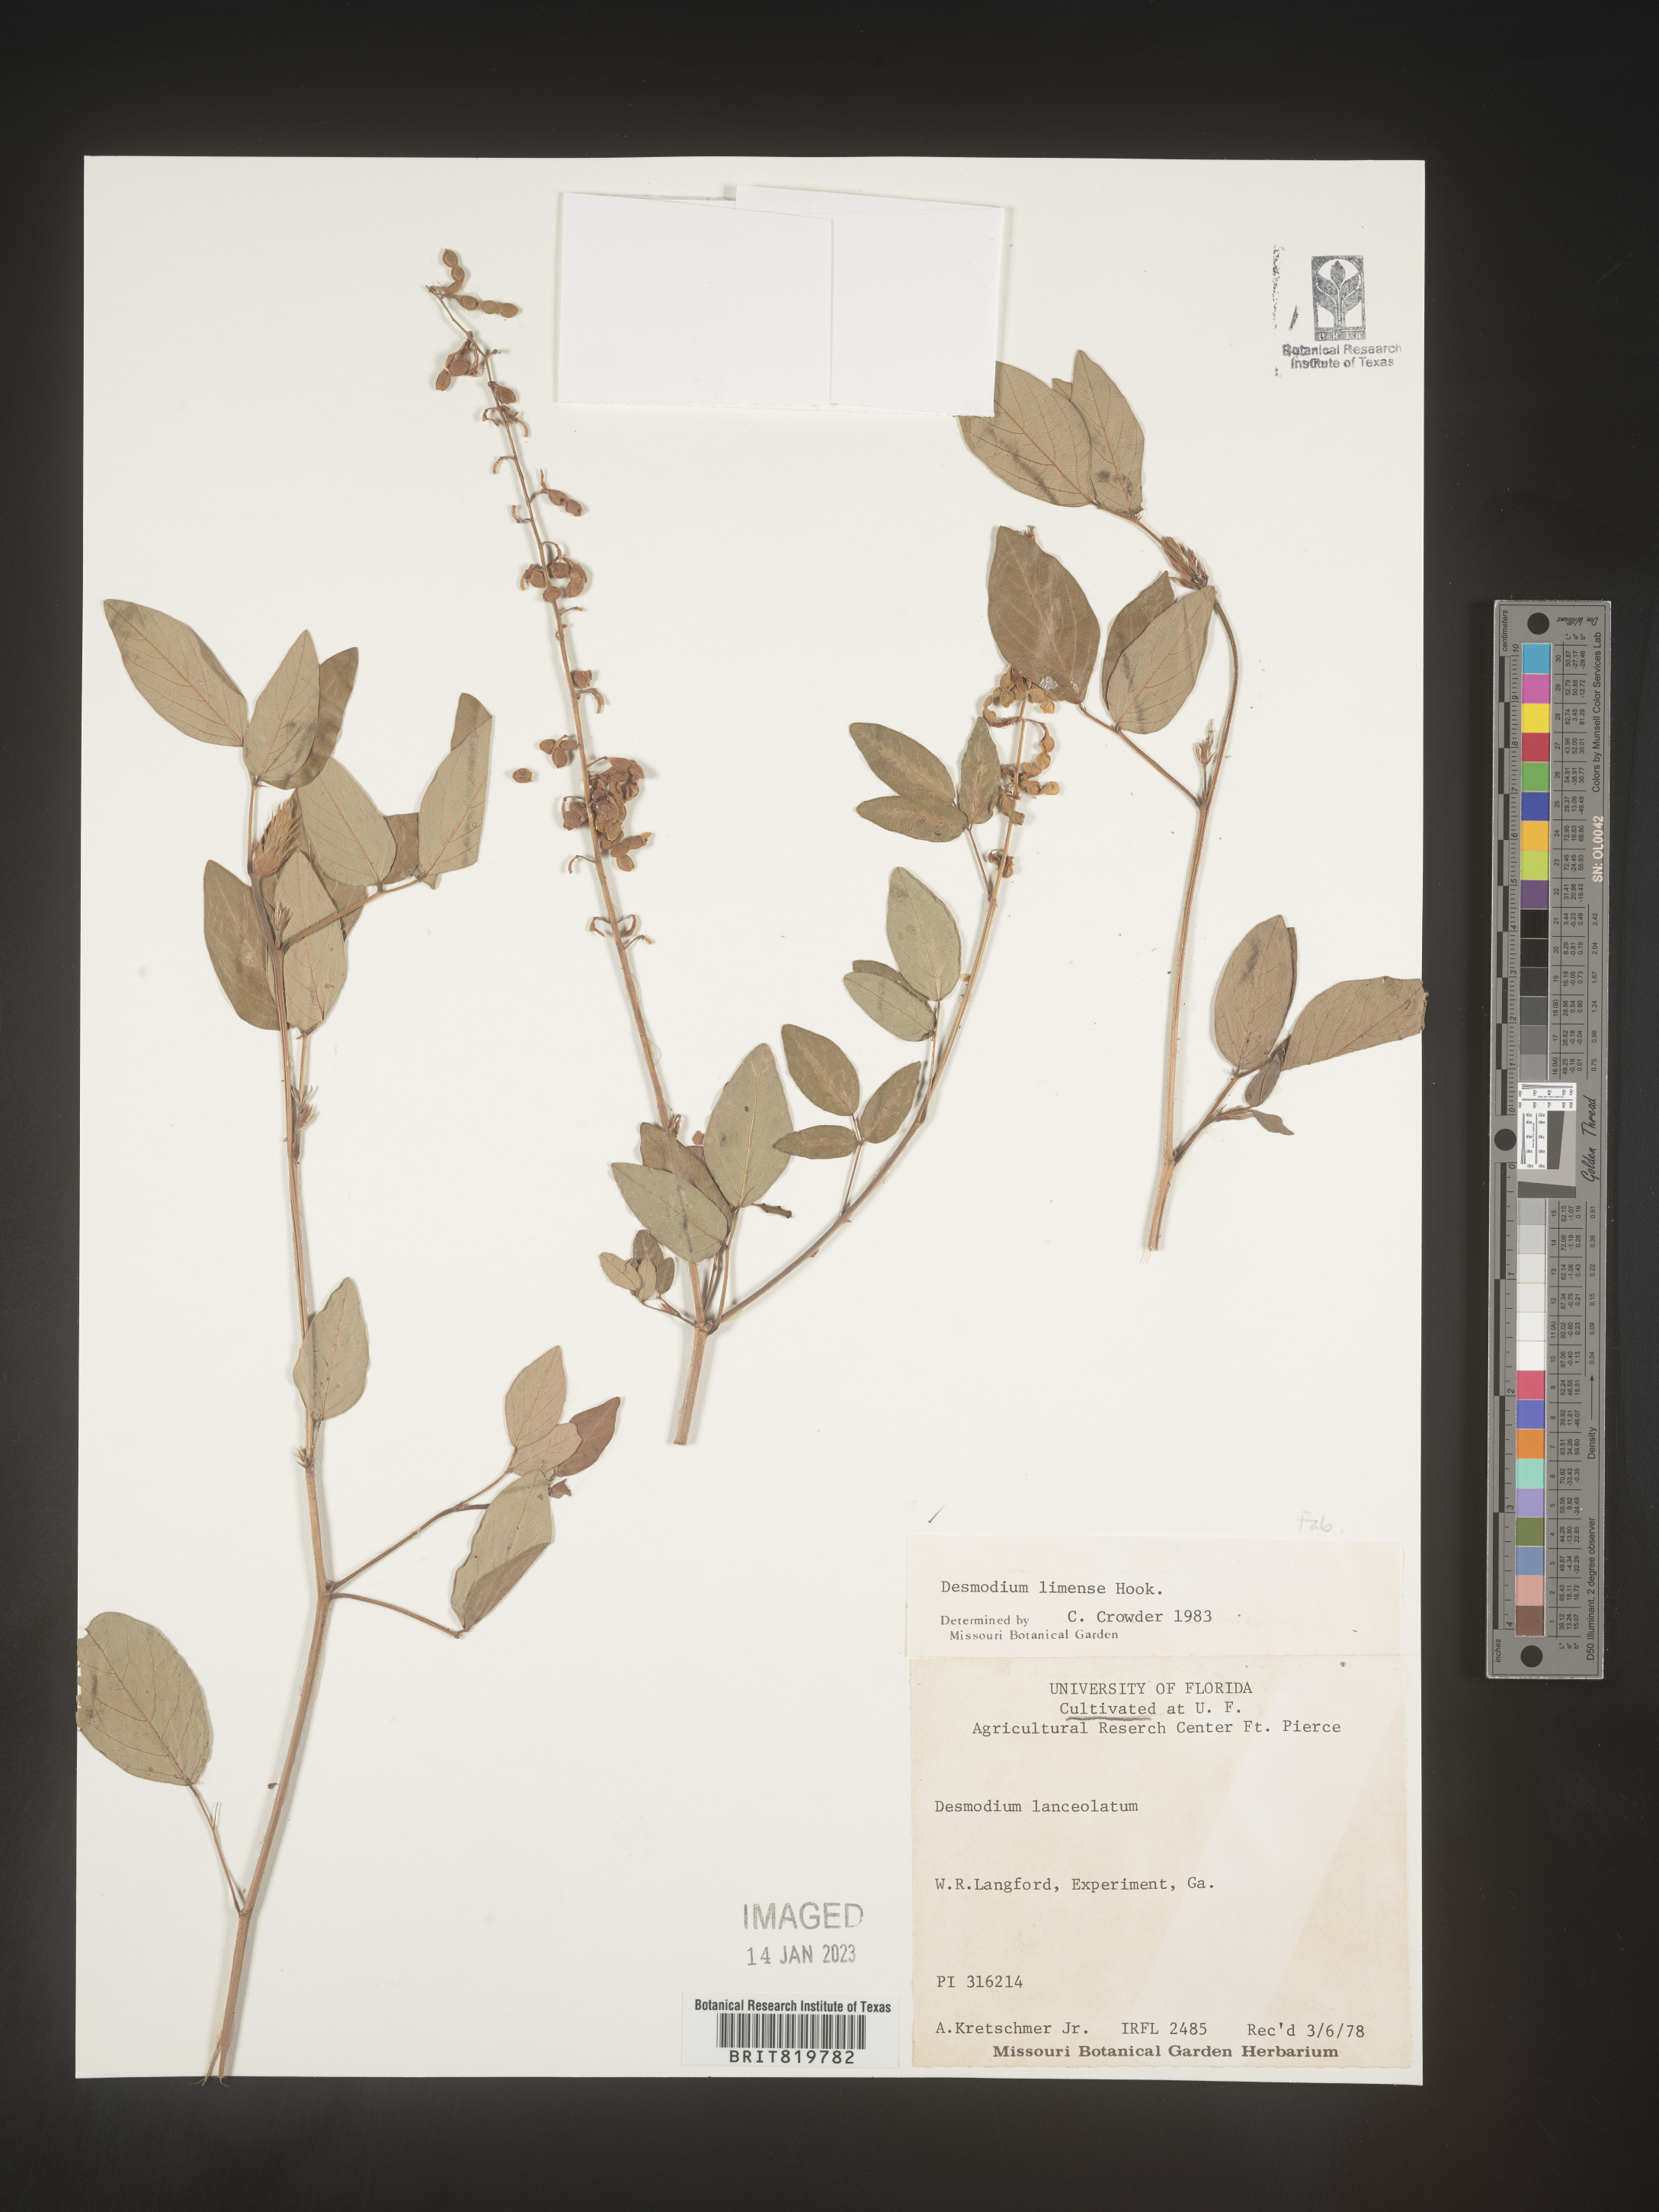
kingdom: Plantae
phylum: Tracheophyta
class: Magnoliopsida
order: Fabales
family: Fabaceae
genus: Desmodium
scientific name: Desmodium
